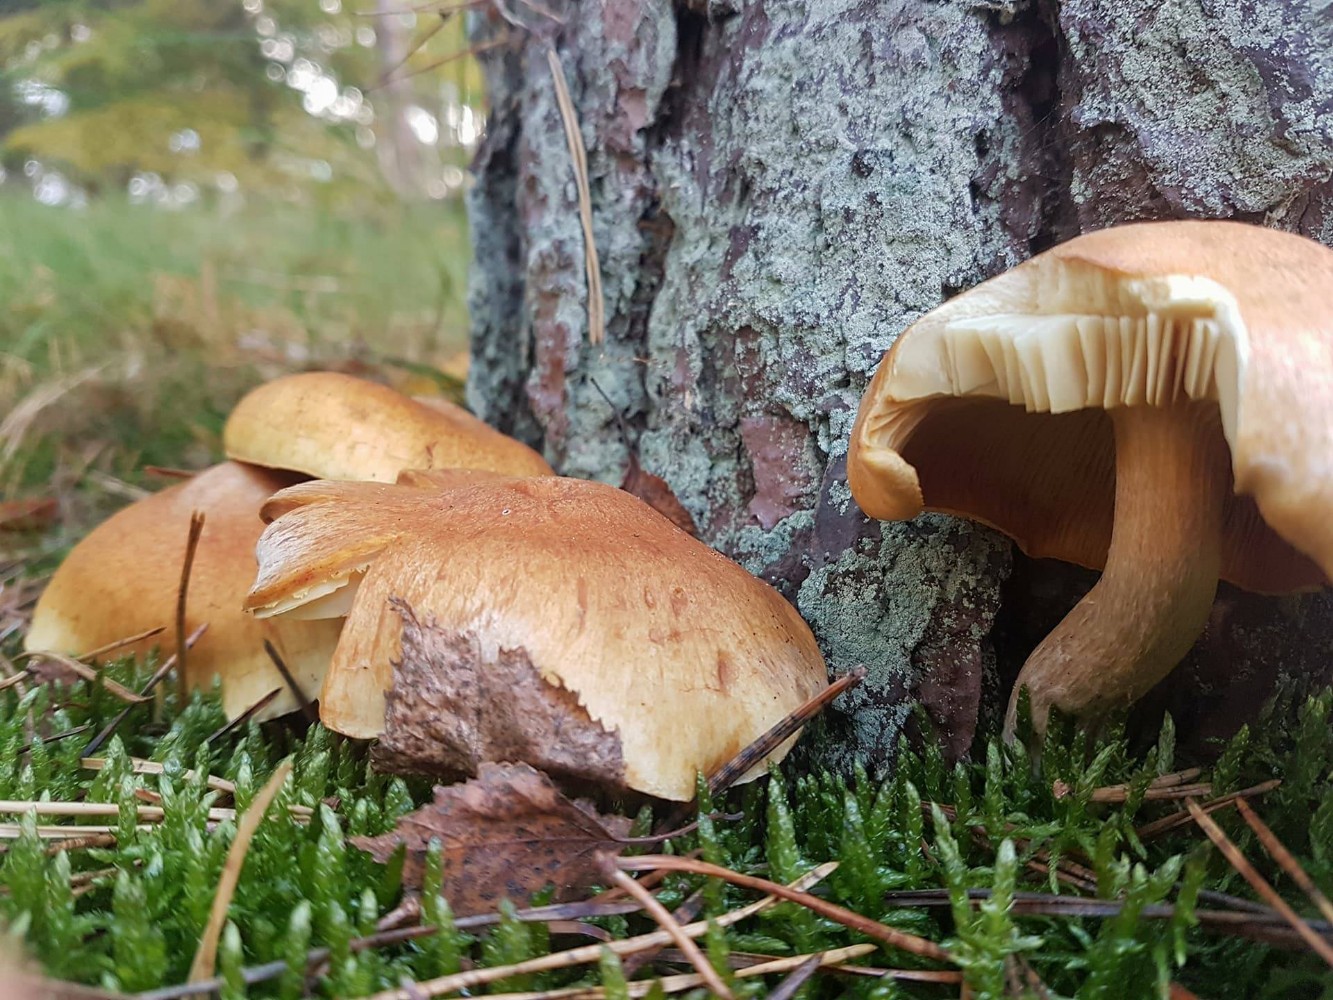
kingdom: Fungi
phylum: Basidiomycota
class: Agaricomycetes
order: Agaricales
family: Hymenogastraceae
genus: Gymnopilus
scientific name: Gymnopilus penetrans
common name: plettet flammehat
